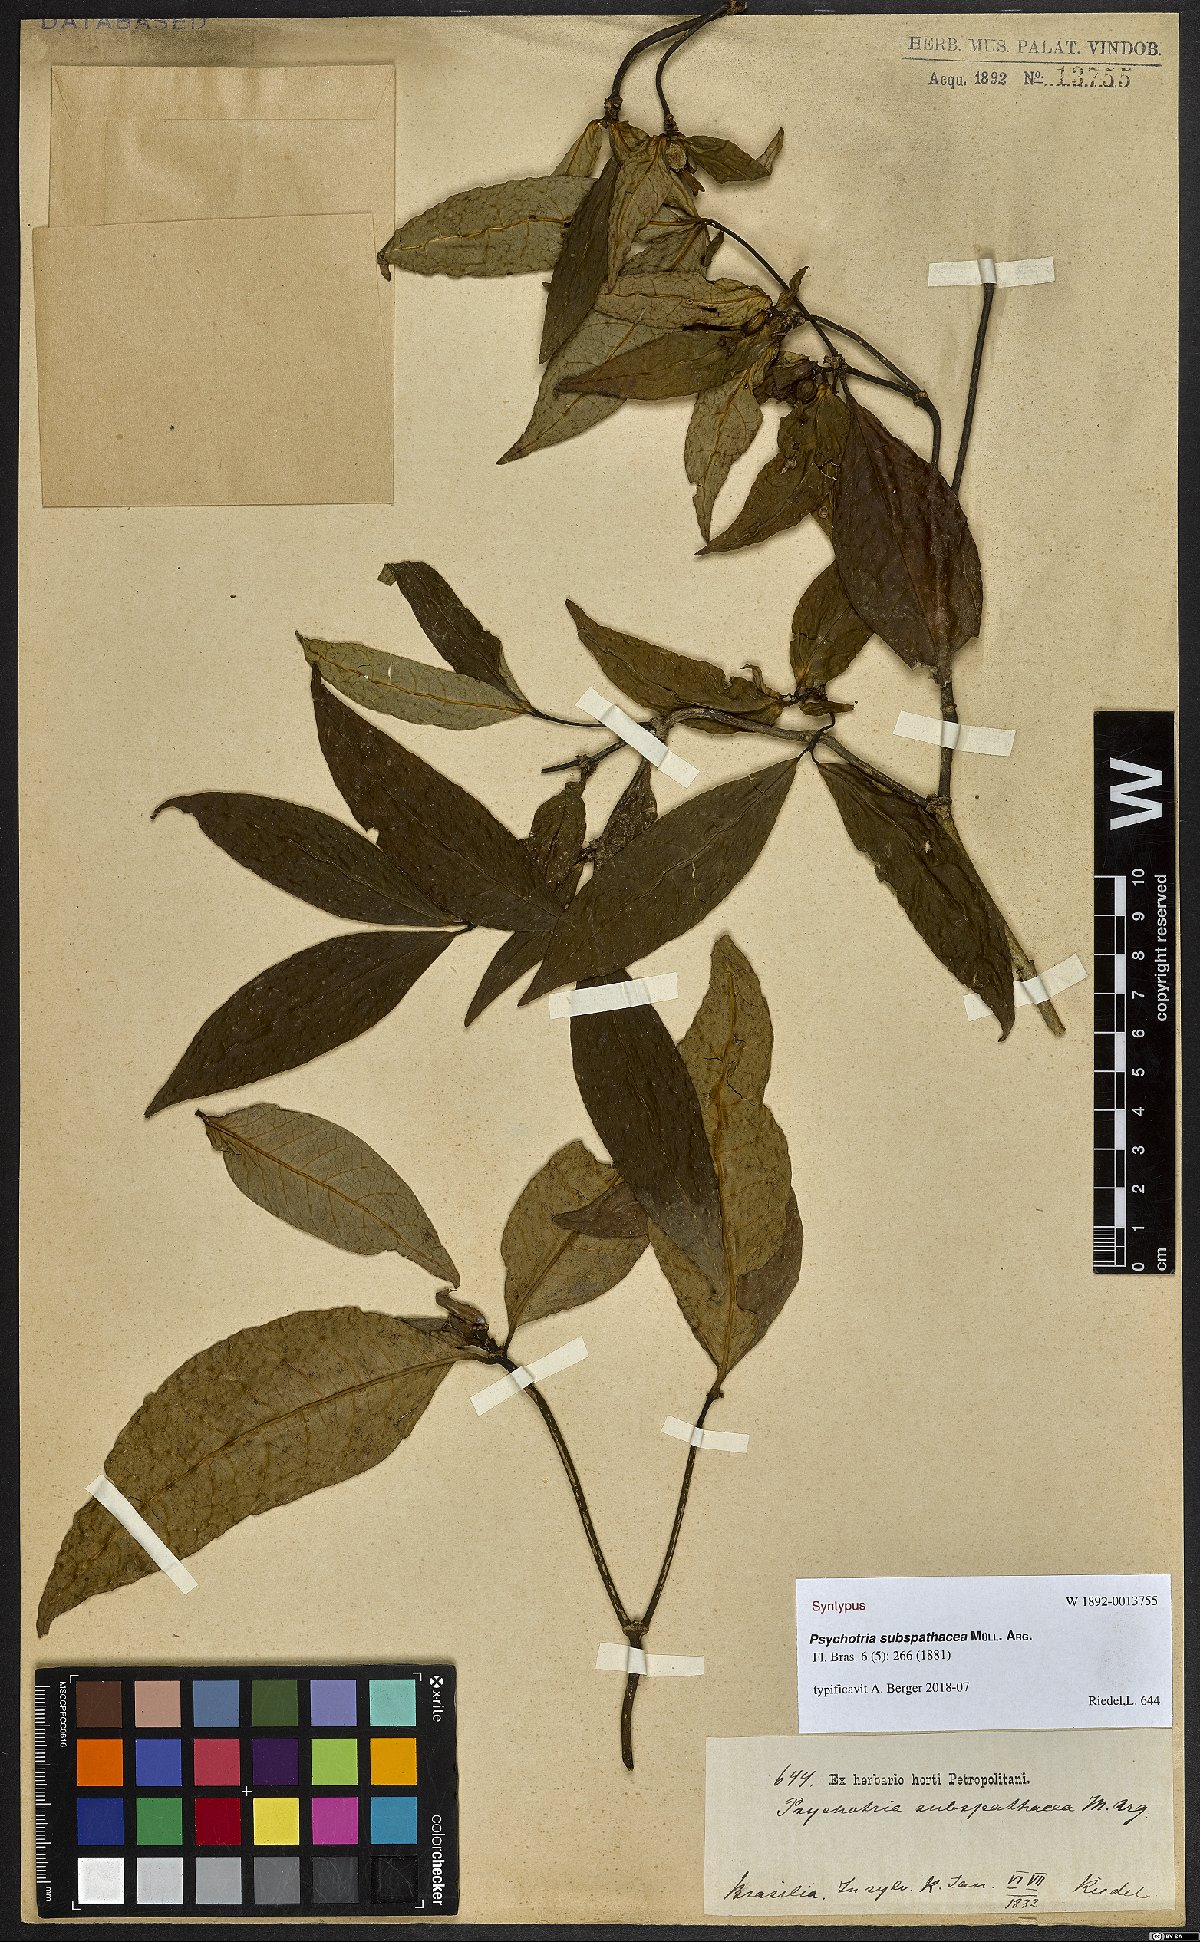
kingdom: Plantae
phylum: Tracheophyta
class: Magnoliopsida
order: Gentianales
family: Rubiaceae
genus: Psychotria
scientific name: Psychotria subspathacea
